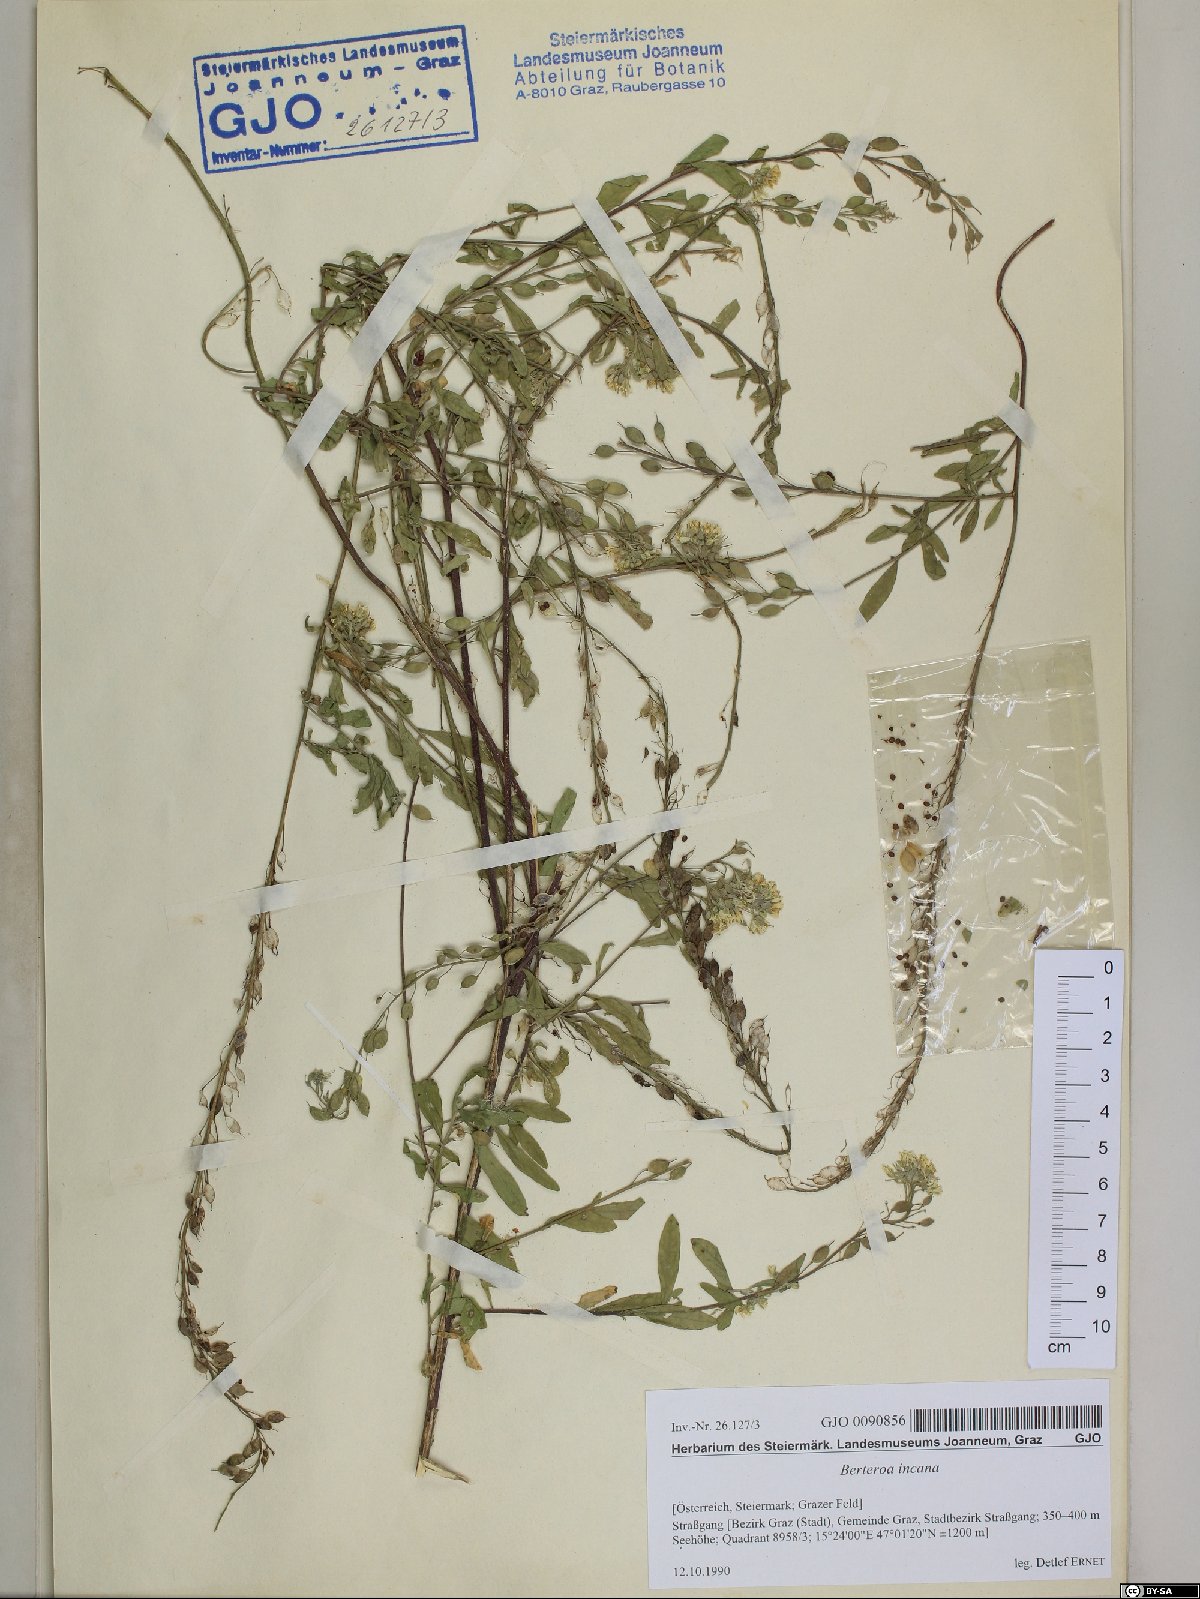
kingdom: Plantae
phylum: Tracheophyta
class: Magnoliopsida
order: Brassicales
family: Brassicaceae
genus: Berteroa
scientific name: Berteroa incana
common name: Hoary alison
